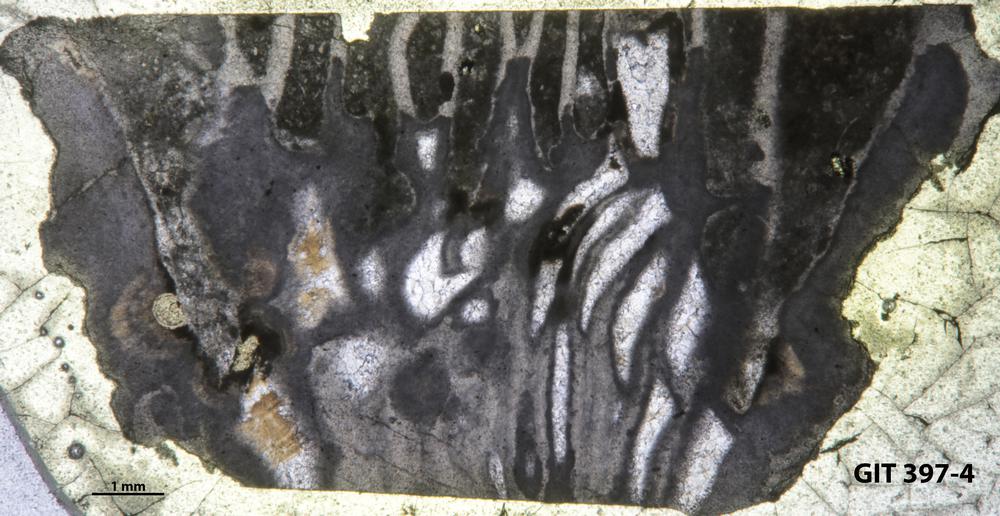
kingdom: Animalia
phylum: Cnidaria
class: Anthozoa
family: Streptelasmatidae
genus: Rhegmaphyllum
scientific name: Rhegmaphyllum
